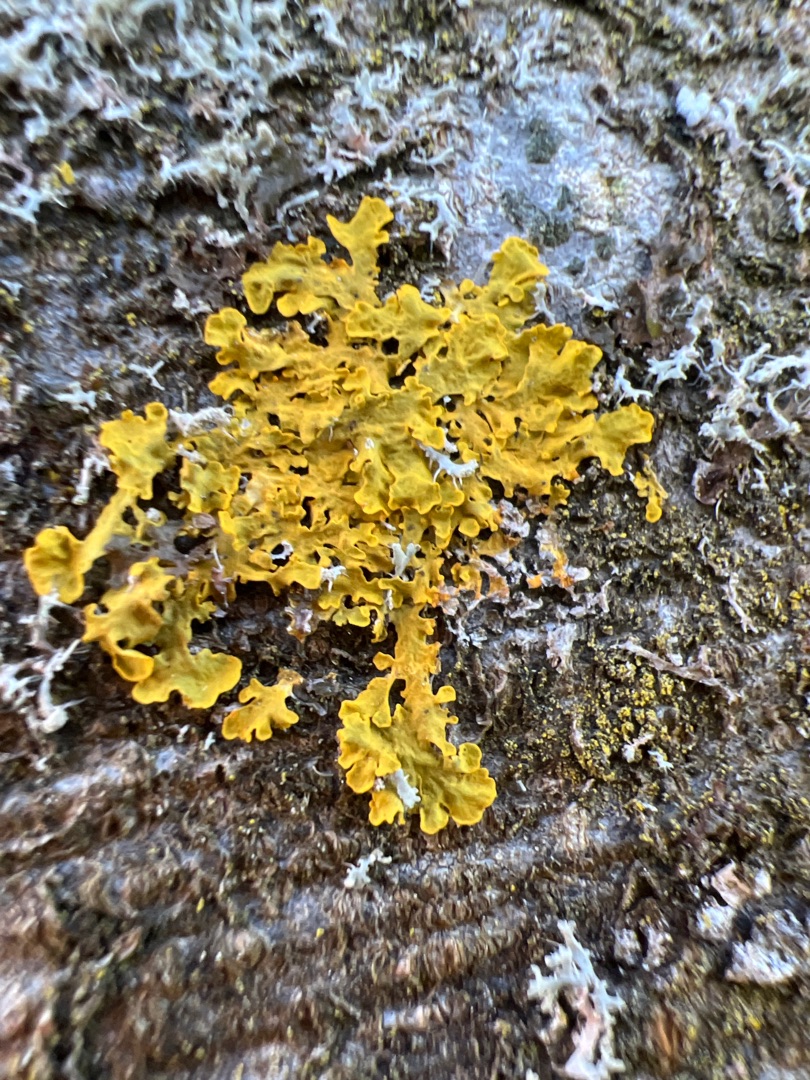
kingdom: Fungi
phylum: Ascomycota
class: Lecanoromycetes
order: Teloschistales
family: Teloschistaceae
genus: Xanthoria
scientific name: Xanthoria parietina
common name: Almindelig væggelav
